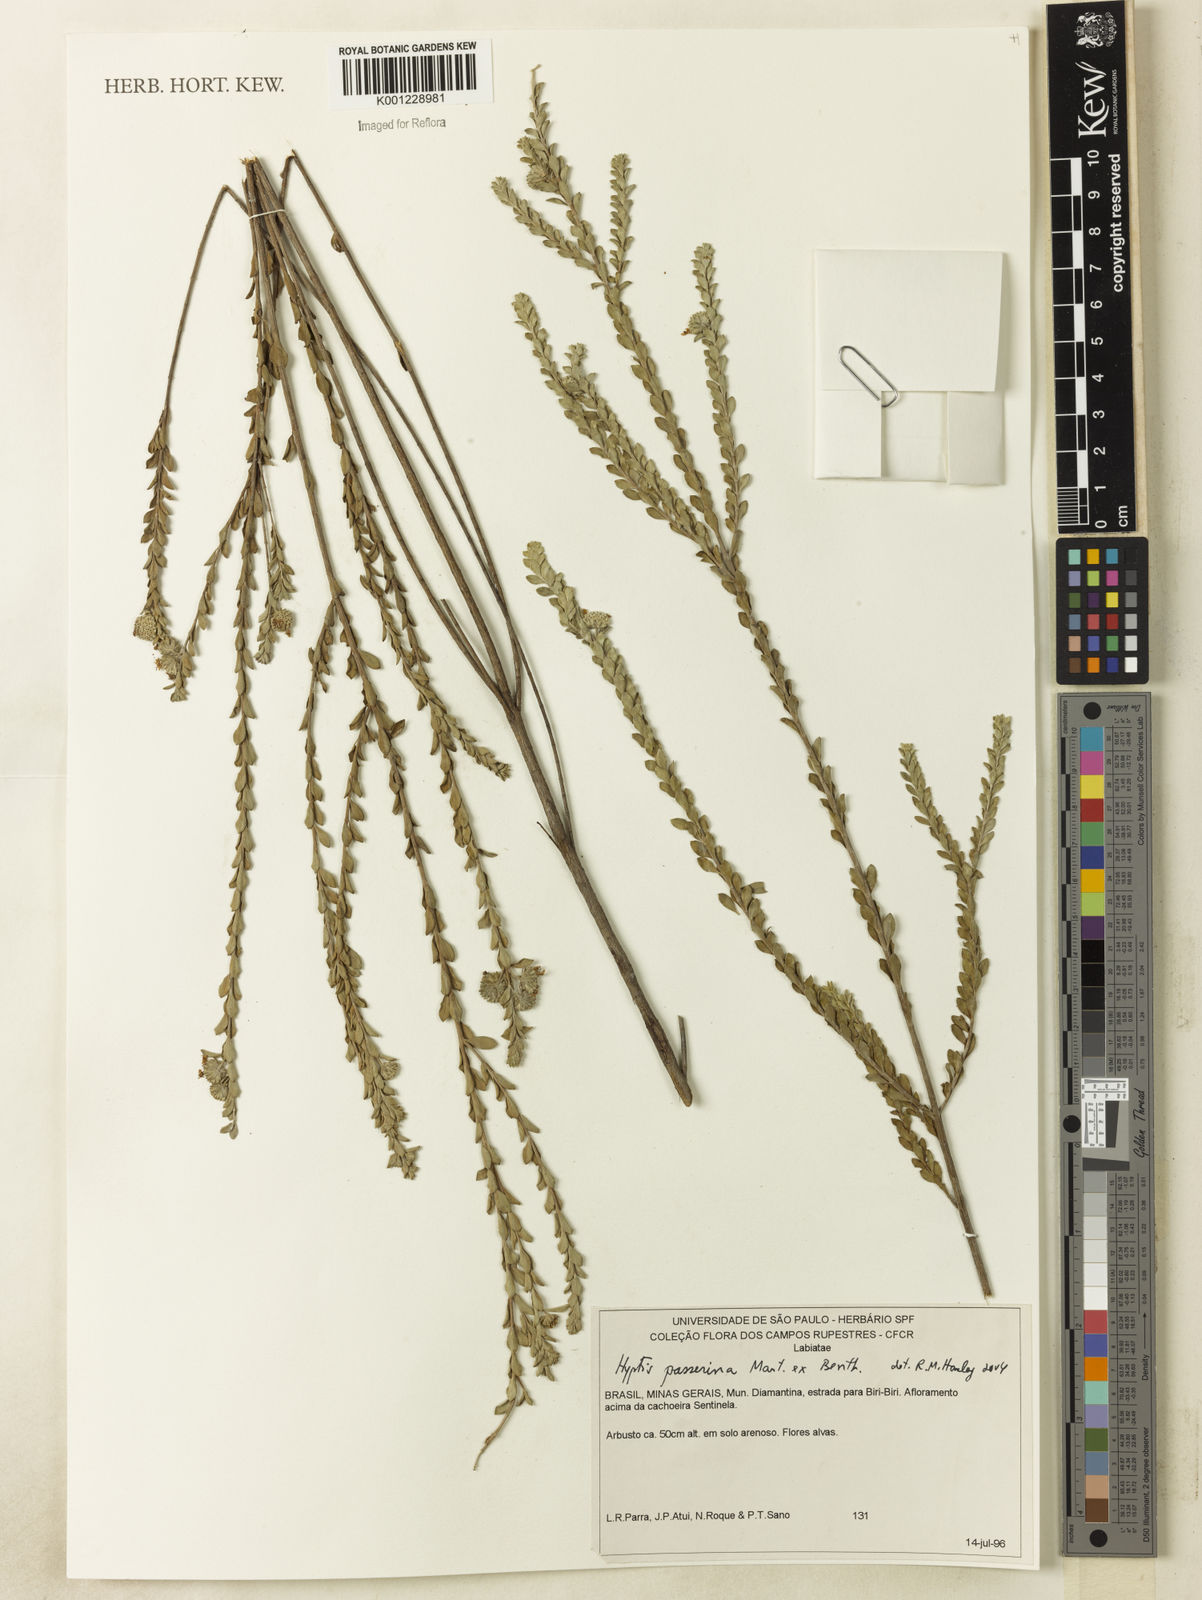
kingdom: Plantae
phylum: Tracheophyta
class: Magnoliopsida
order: Lamiales
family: Lamiaceae
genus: Hyptis
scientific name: Hyptis passerina
